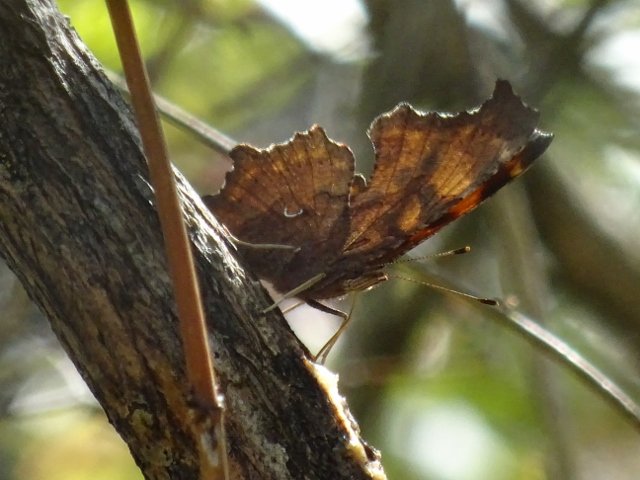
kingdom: Animalia
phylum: Arthropoda
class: Insecta
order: Lepidoptera
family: Nymphalidae
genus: Polygonia
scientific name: Polygonia comma
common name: Eastern Comma
